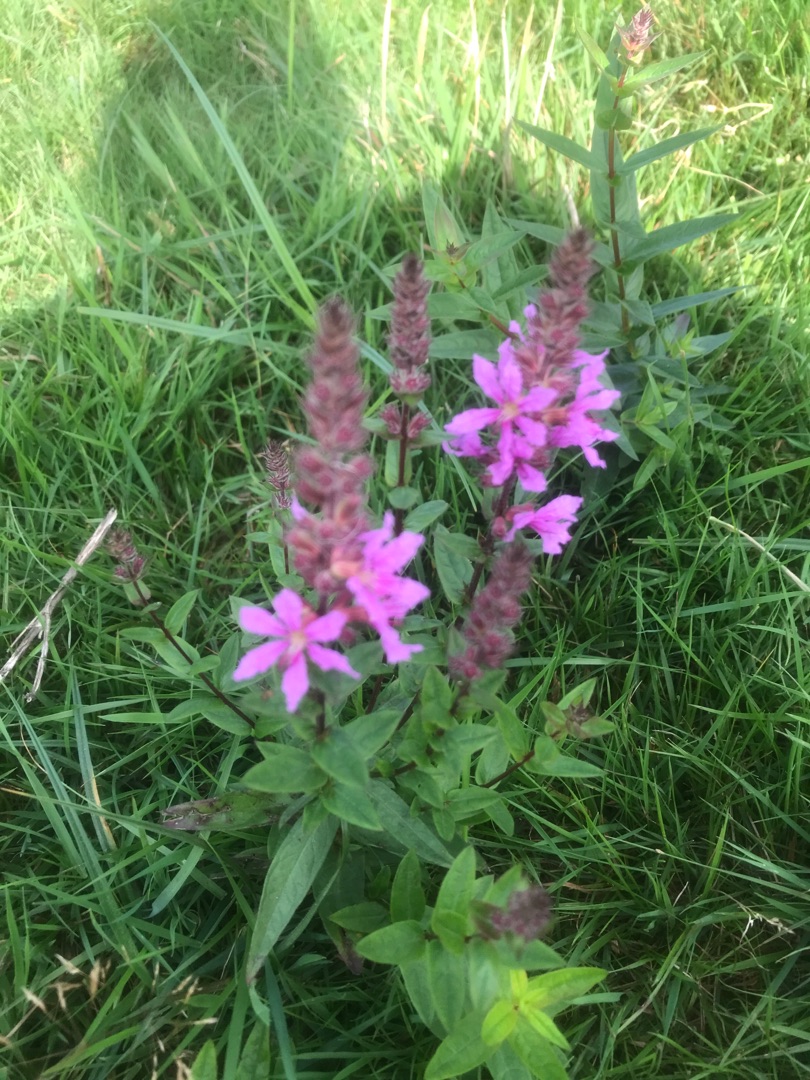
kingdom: Plantae
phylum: Tracheophyta
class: Magnoliopsida
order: Myrtales
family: Lythraceae
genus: Lythrum
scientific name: Lythrum salicaria
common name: Kattehale
